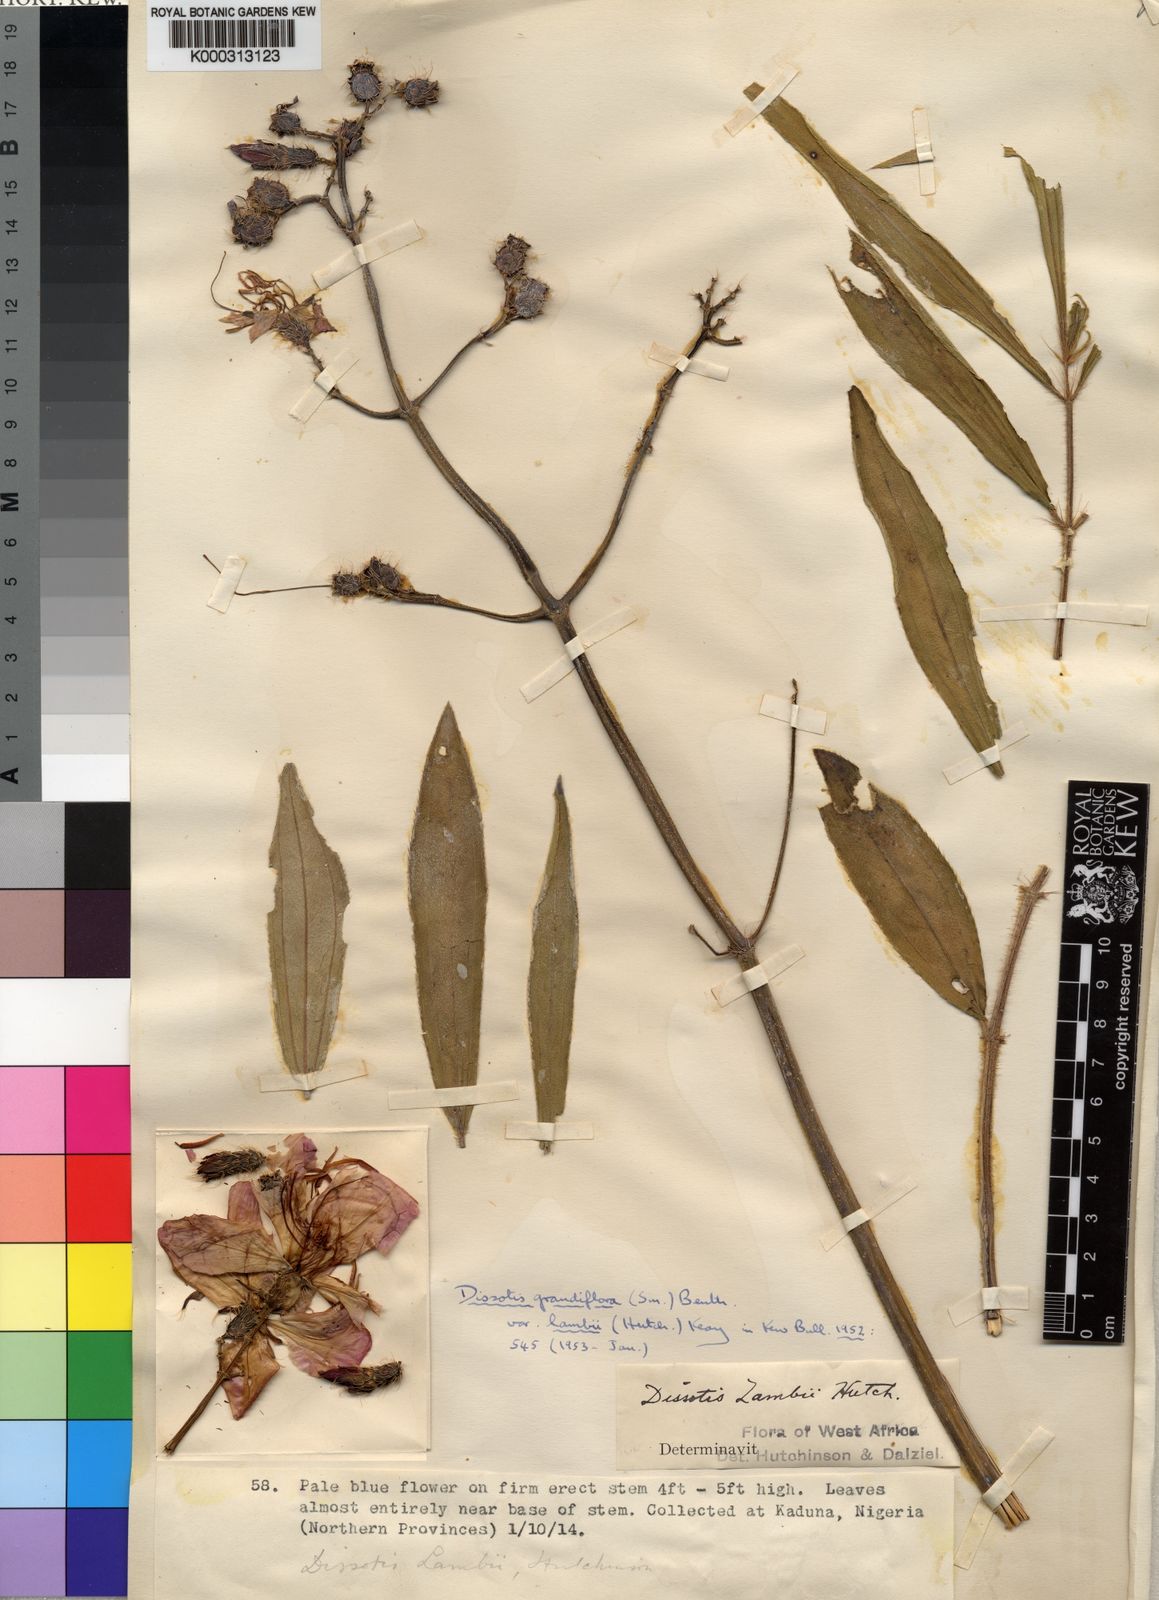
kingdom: Plantae
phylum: Tracheophyta
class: Magnoliopsida
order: Myrtales
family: Melastomataceae
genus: Dissotis
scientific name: Dissotis grandiflora
